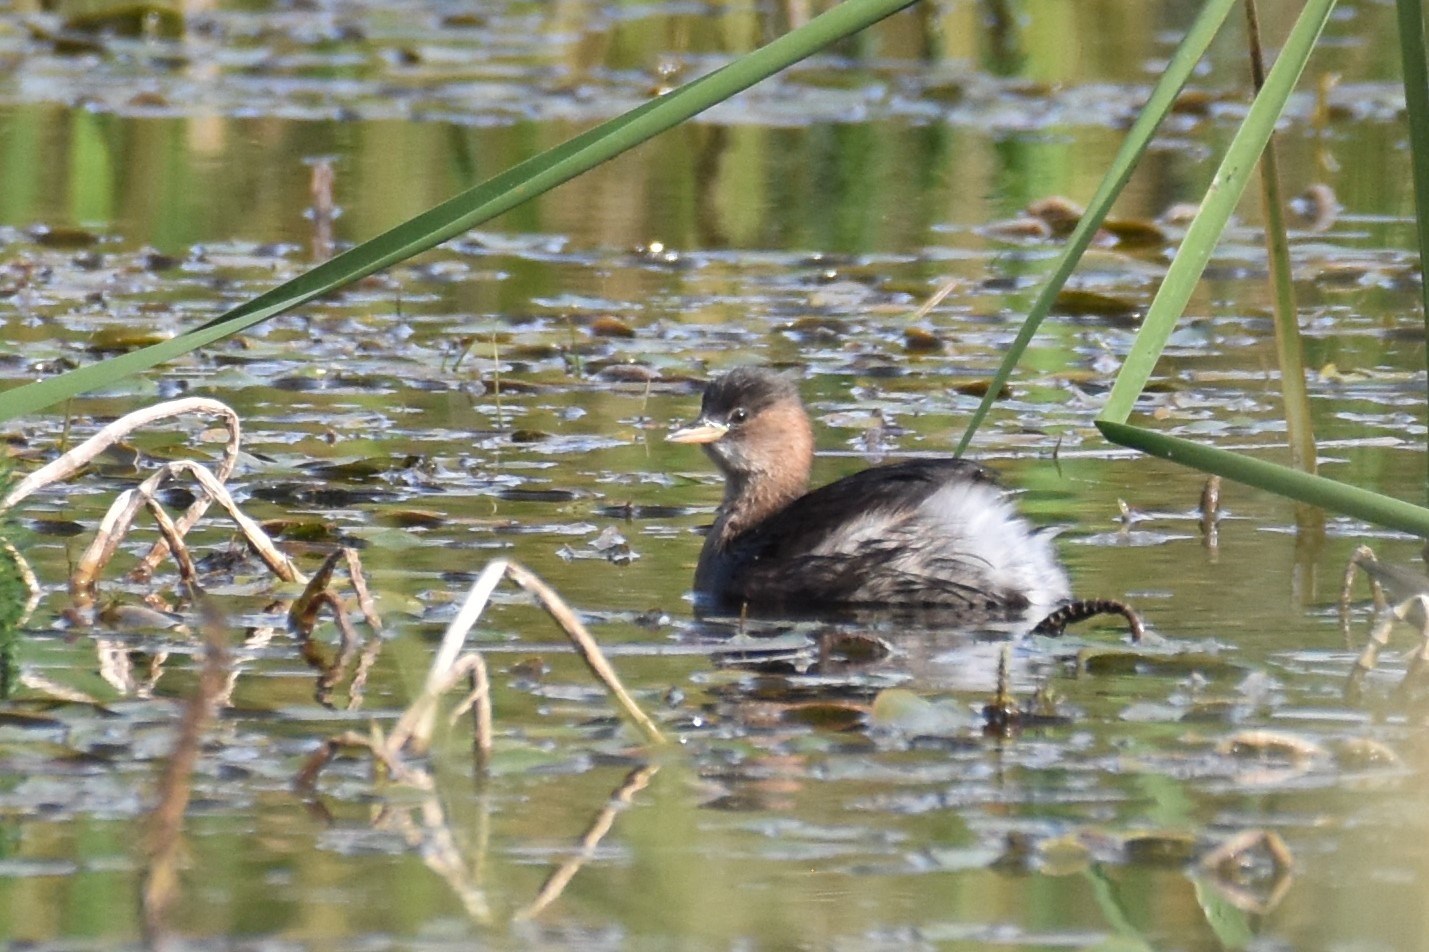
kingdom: Animalia
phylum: Chordata
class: Aves
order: Podicipediformes
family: Podicipedidae
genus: Tachybaptus
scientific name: Tachybaptus ruficollis
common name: Lille lappedykker
